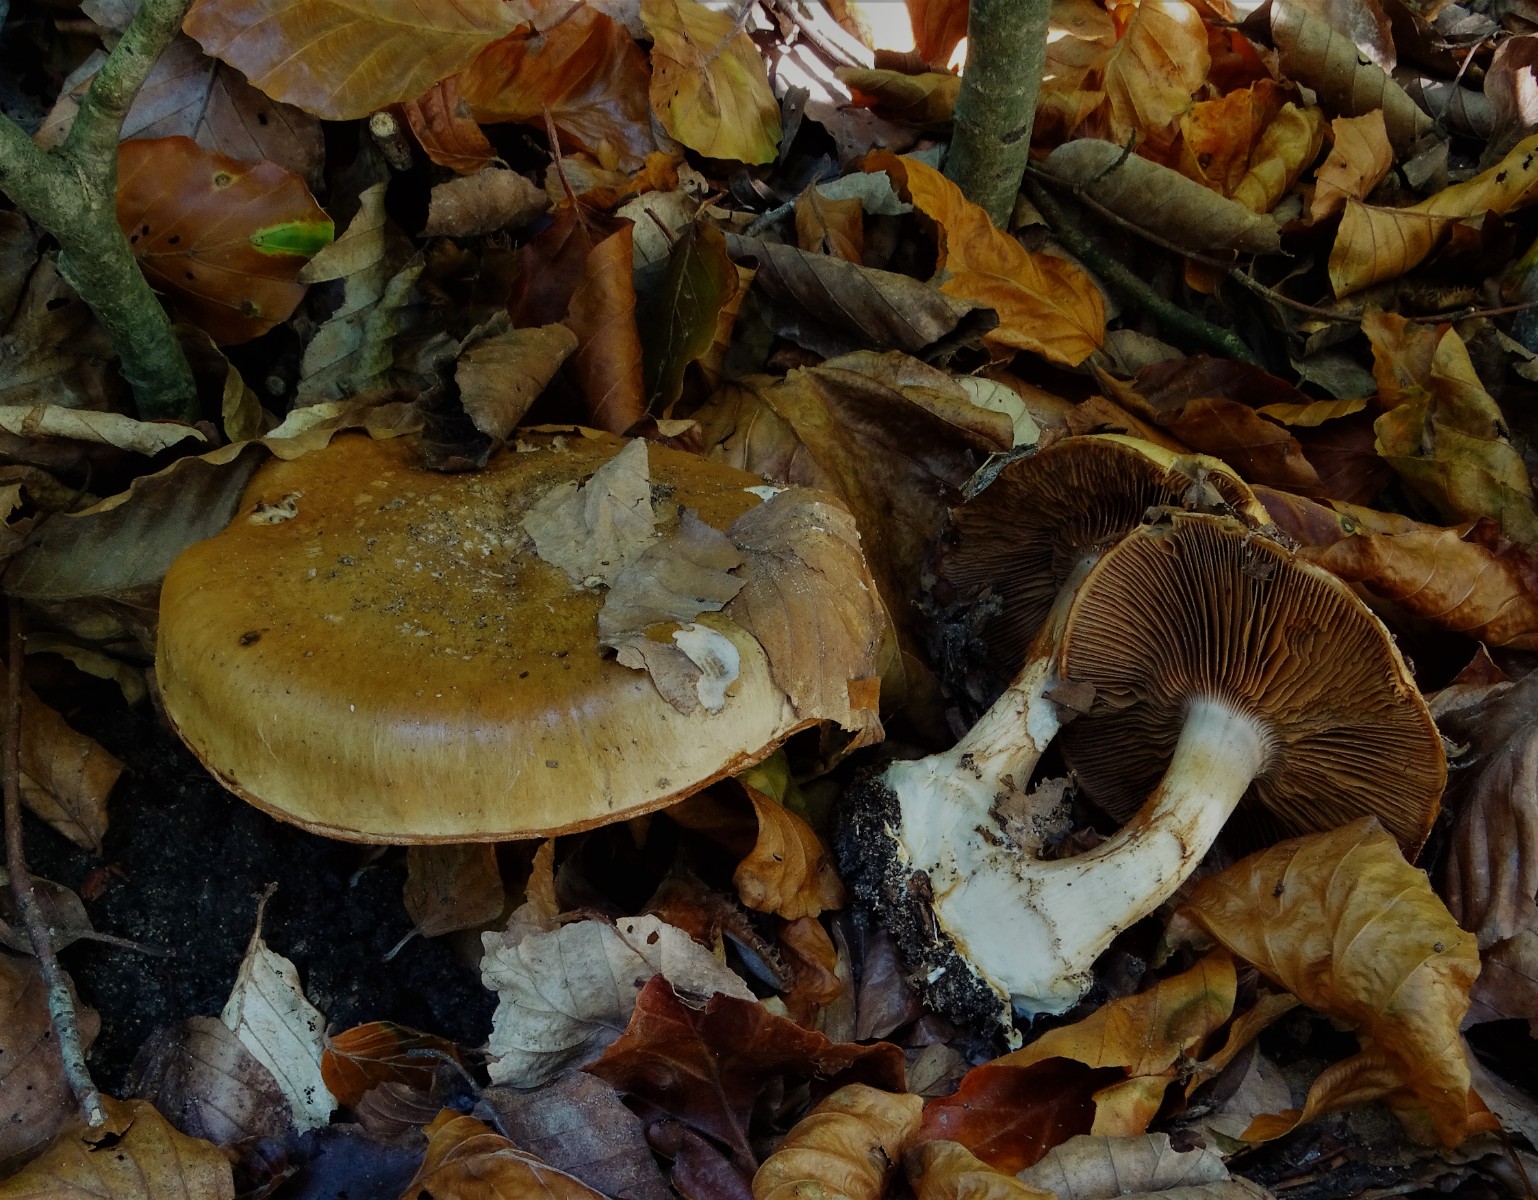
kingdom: Fungi
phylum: Basidiomycota
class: Agaricomycetes
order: Agaricales
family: Cortinariaceae
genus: Cortinarius
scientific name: Cortinarius anserinus
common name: bøge-slørhat
